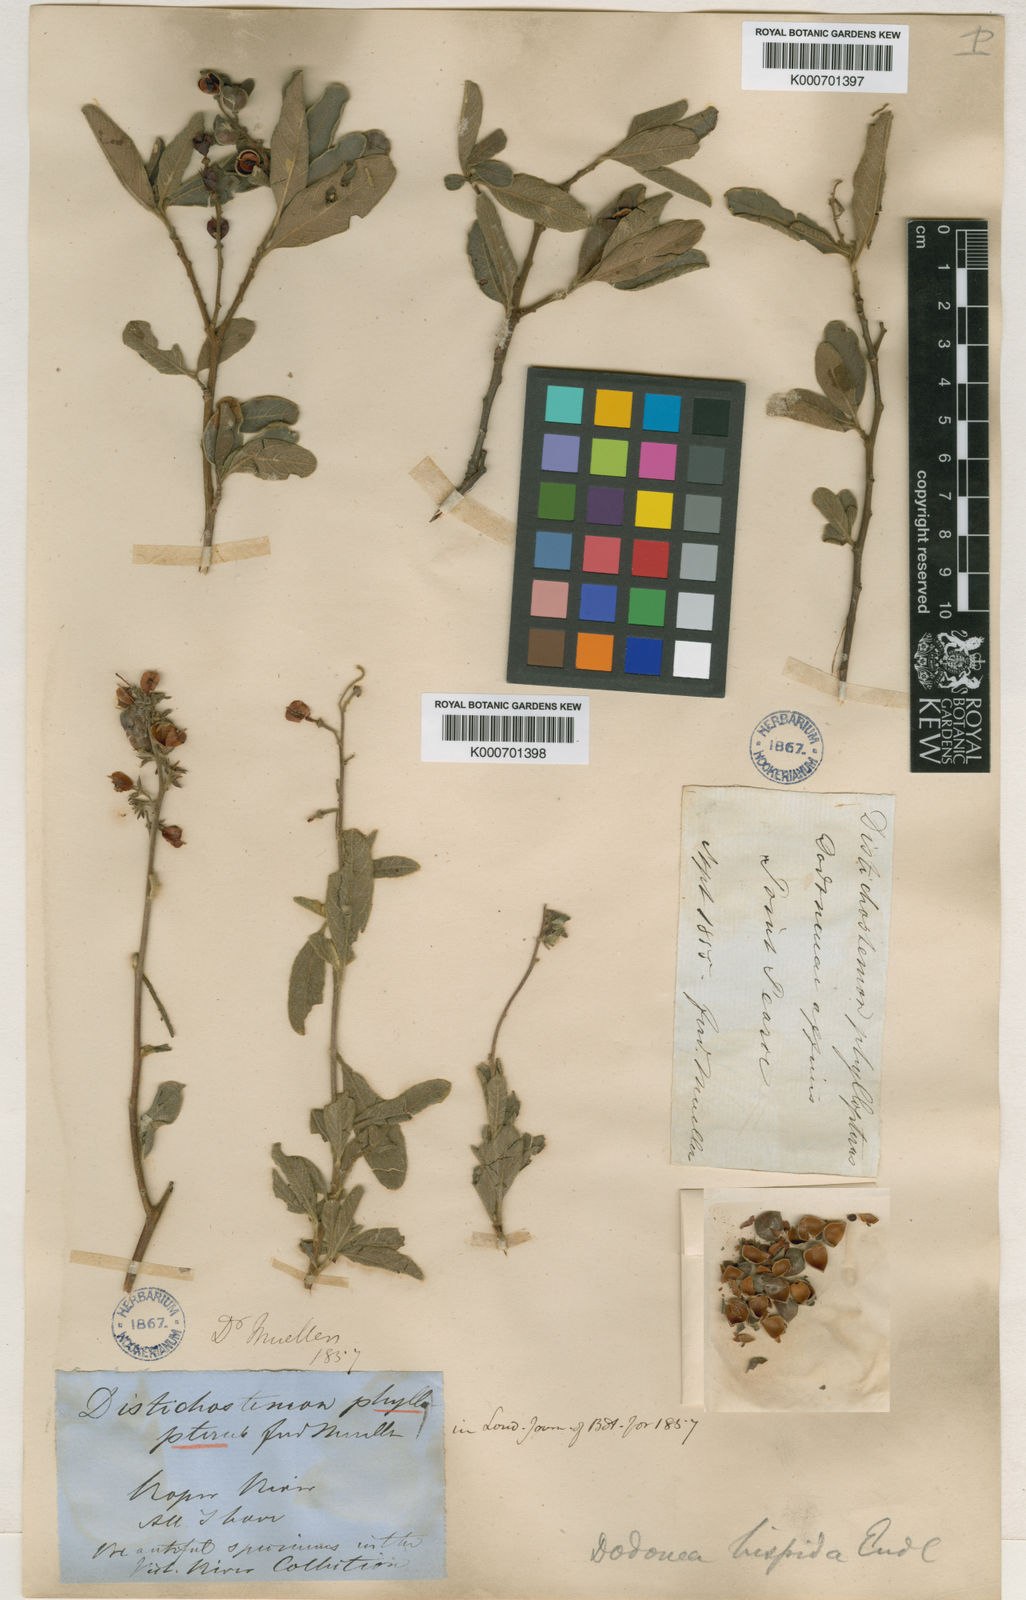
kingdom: Plantae
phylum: Tracheophyta
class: Magnoliopsida
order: Sapindales
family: Sapindaceae
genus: Dodonaea
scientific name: Dodonaea hispidula
